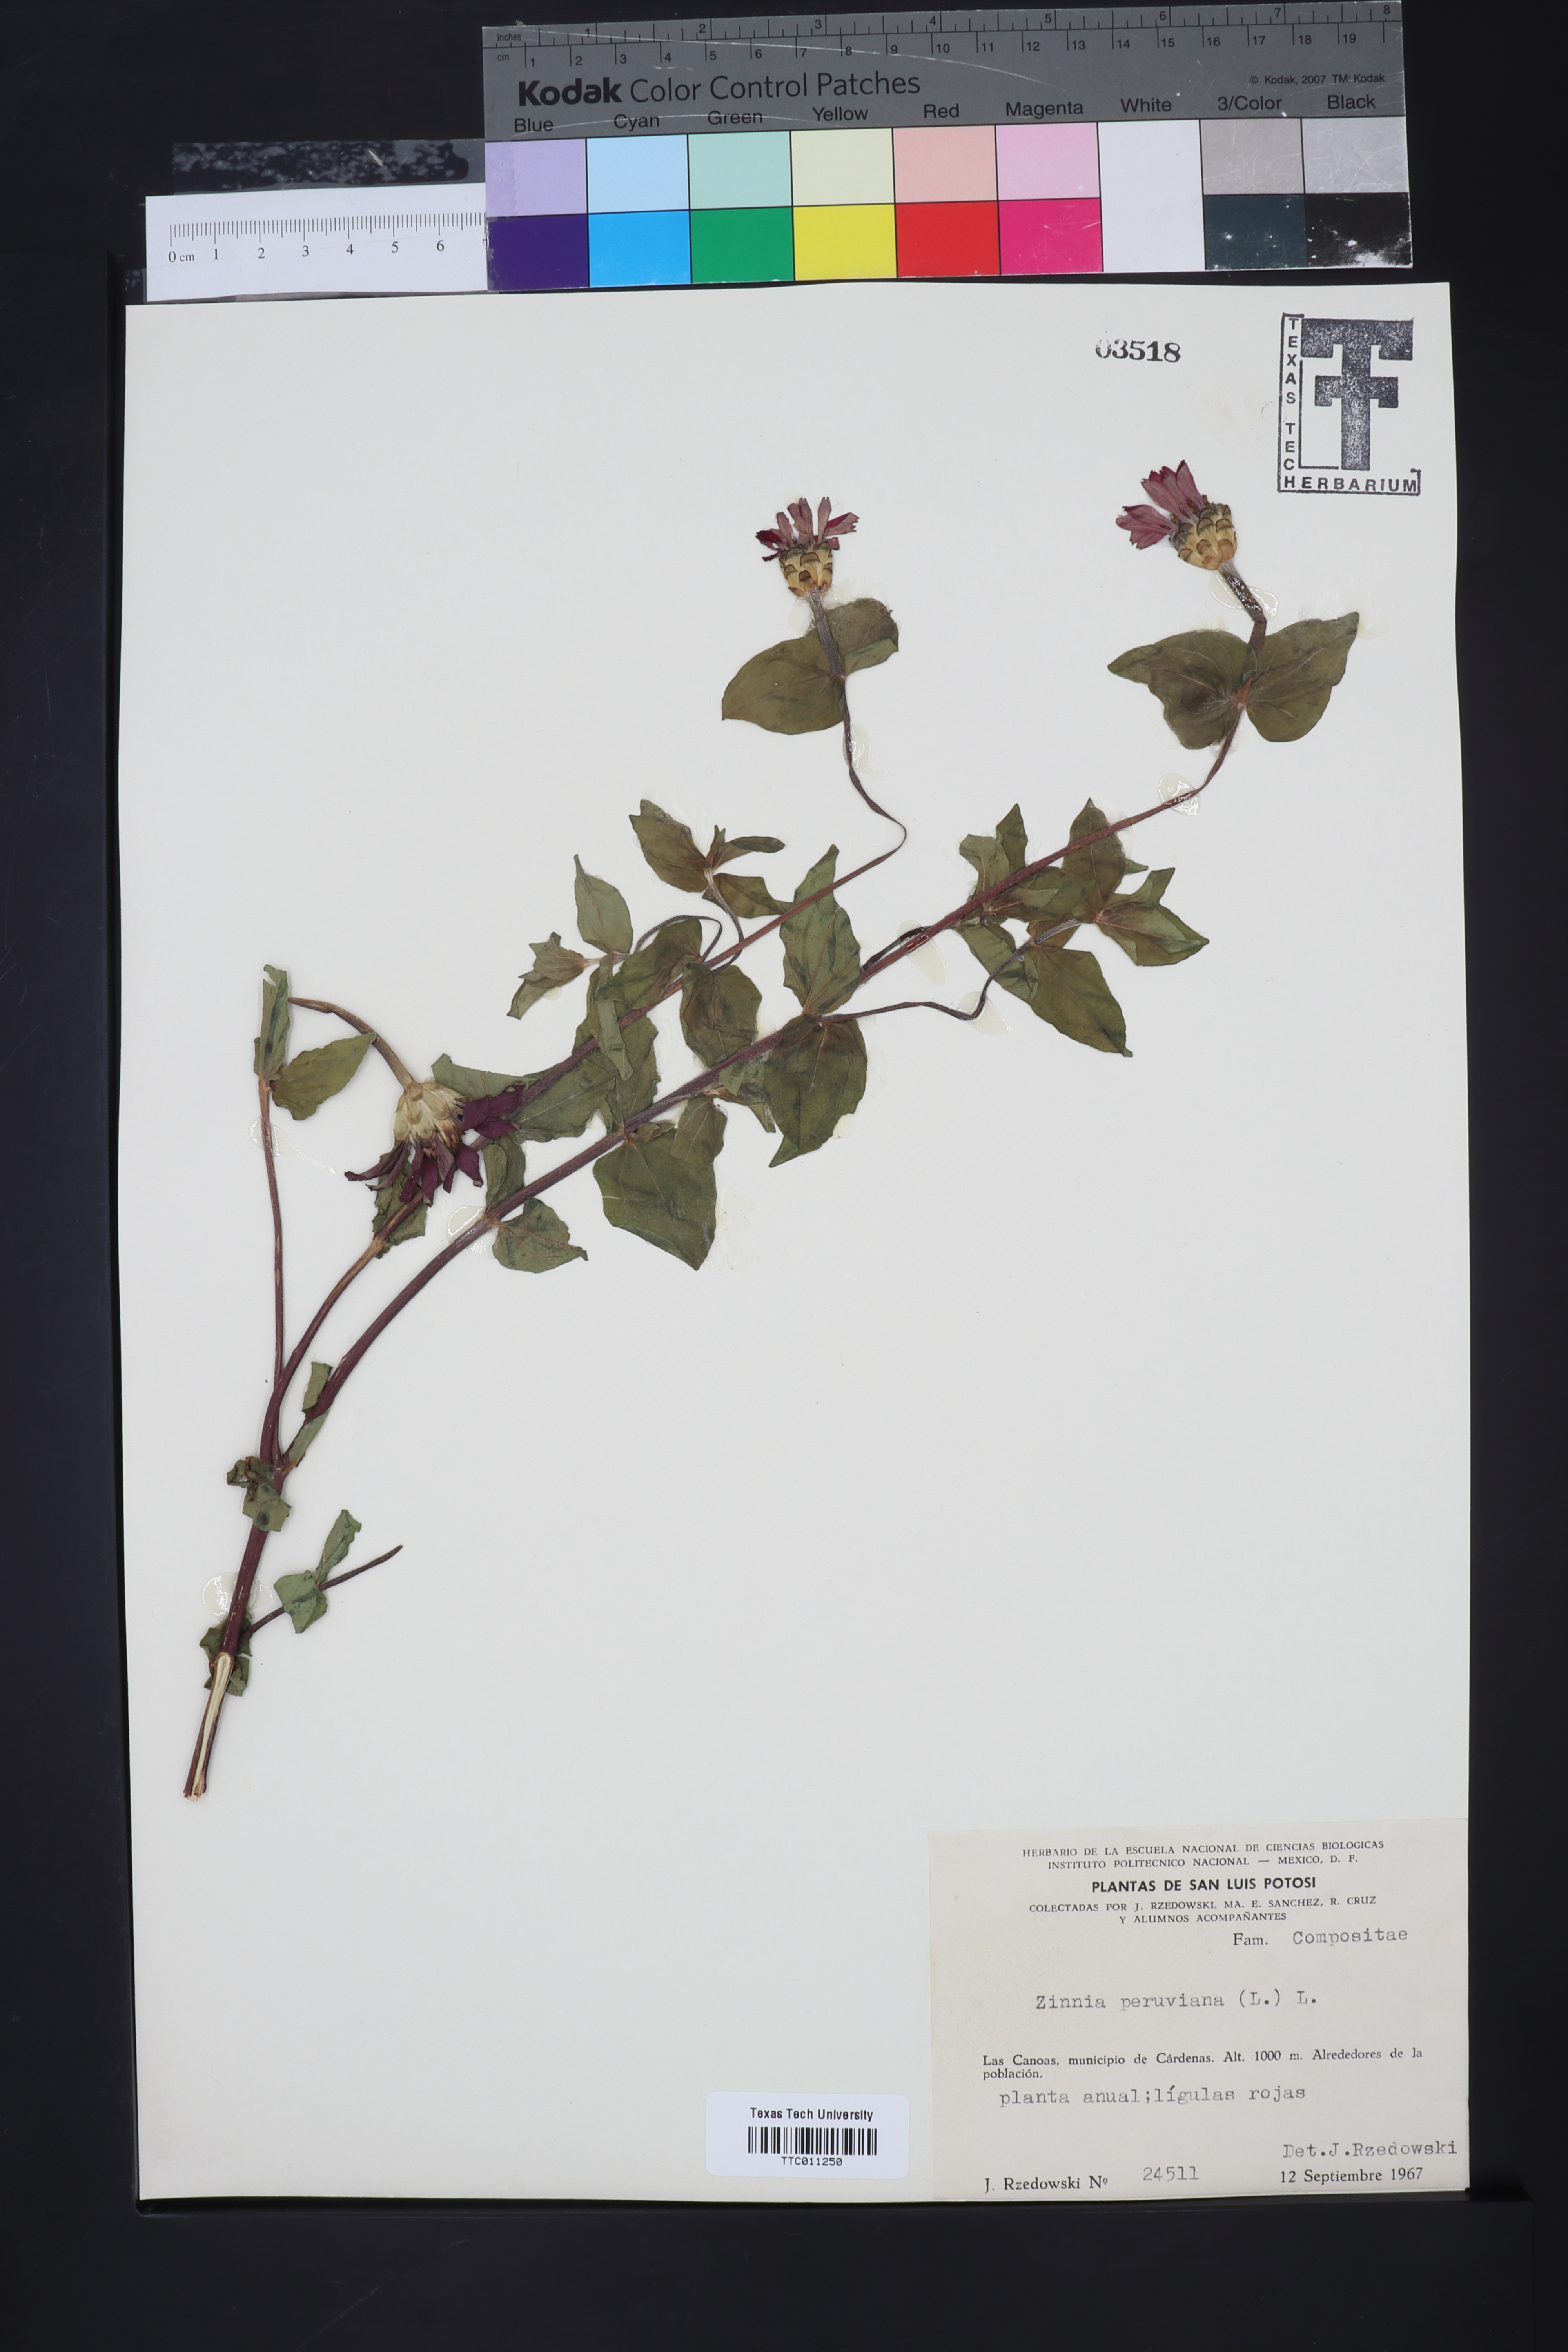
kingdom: Plantae
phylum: Tracheophyta
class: Magnoliopsida
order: Asterales
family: Asteraceae
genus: Zinnia
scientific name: Zinnia peruviana
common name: Peruvian zinnia
